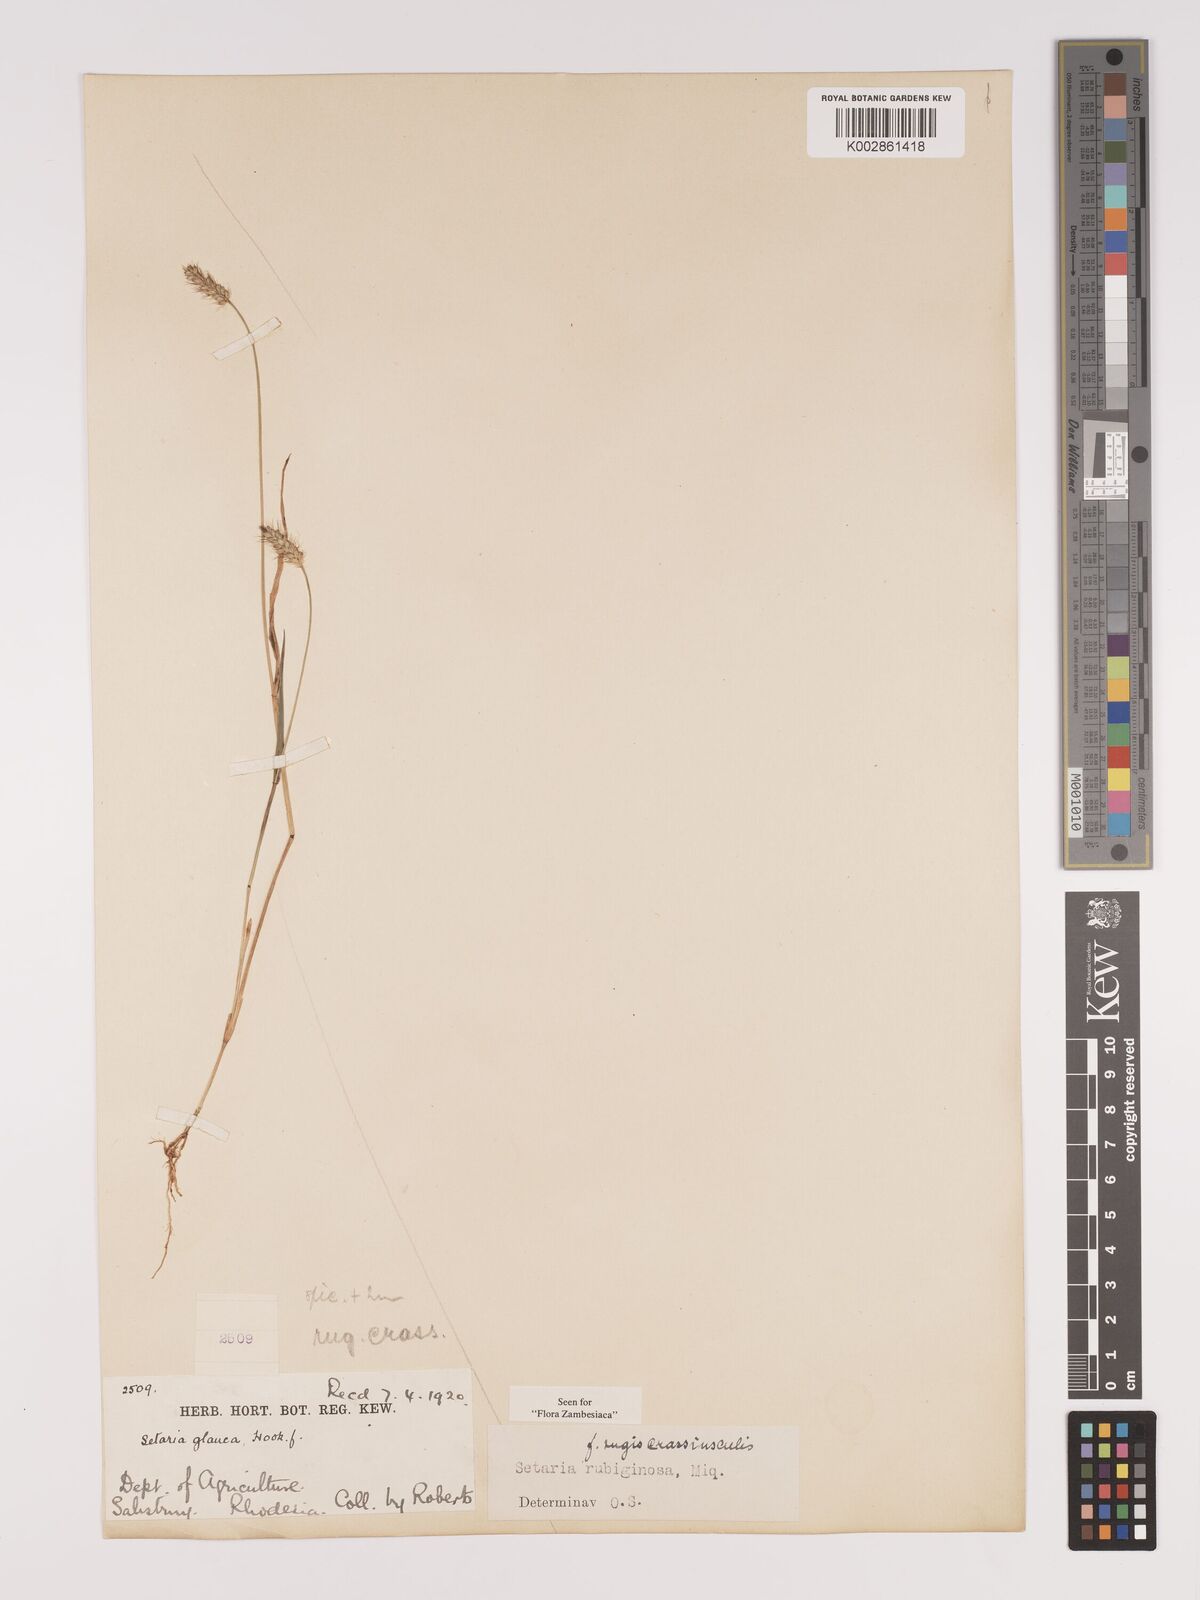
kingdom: Plantae
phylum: Tracheophyta
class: Liliopsida
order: Poales
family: Poaceae
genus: Setaria
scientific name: Setaria pumila
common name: Yellow bristle-grass
